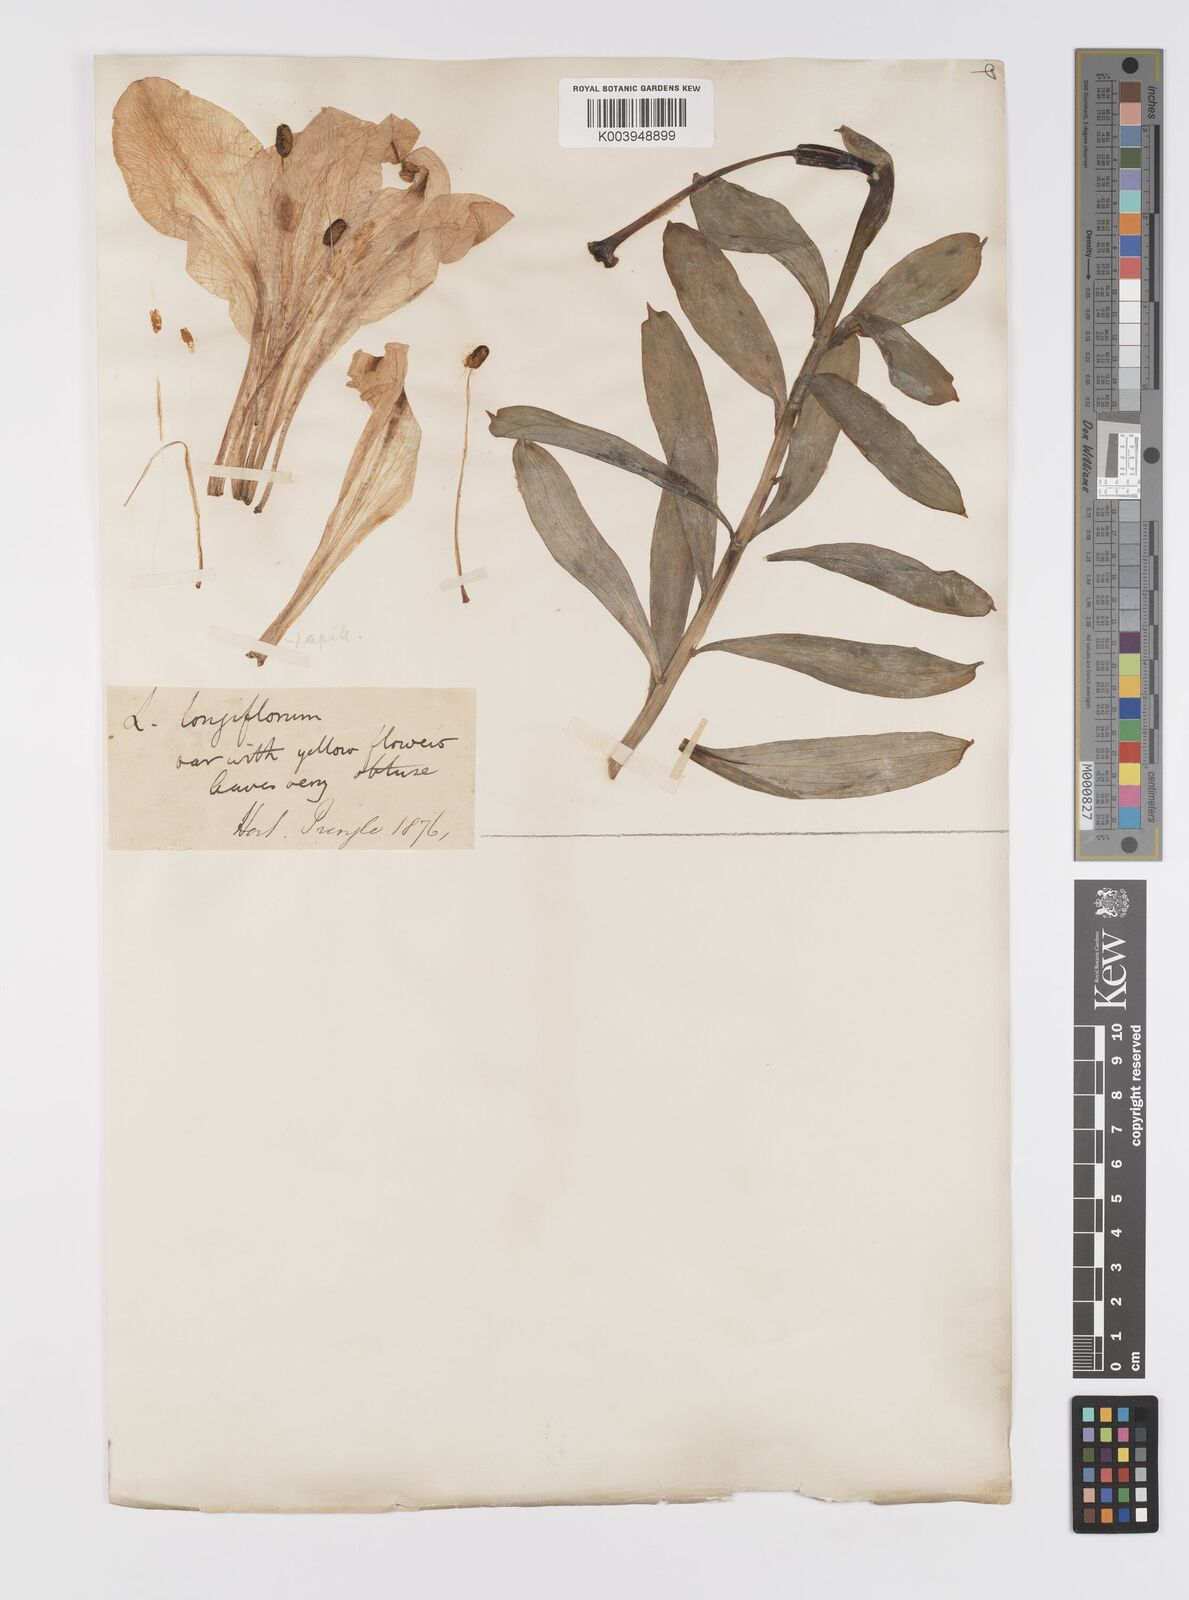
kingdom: Plantae
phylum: Tracheophyta
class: Liliopsida
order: Liliales
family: Liliaceae
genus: Lilium
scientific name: Lilium longiflorum
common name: Easter lily
